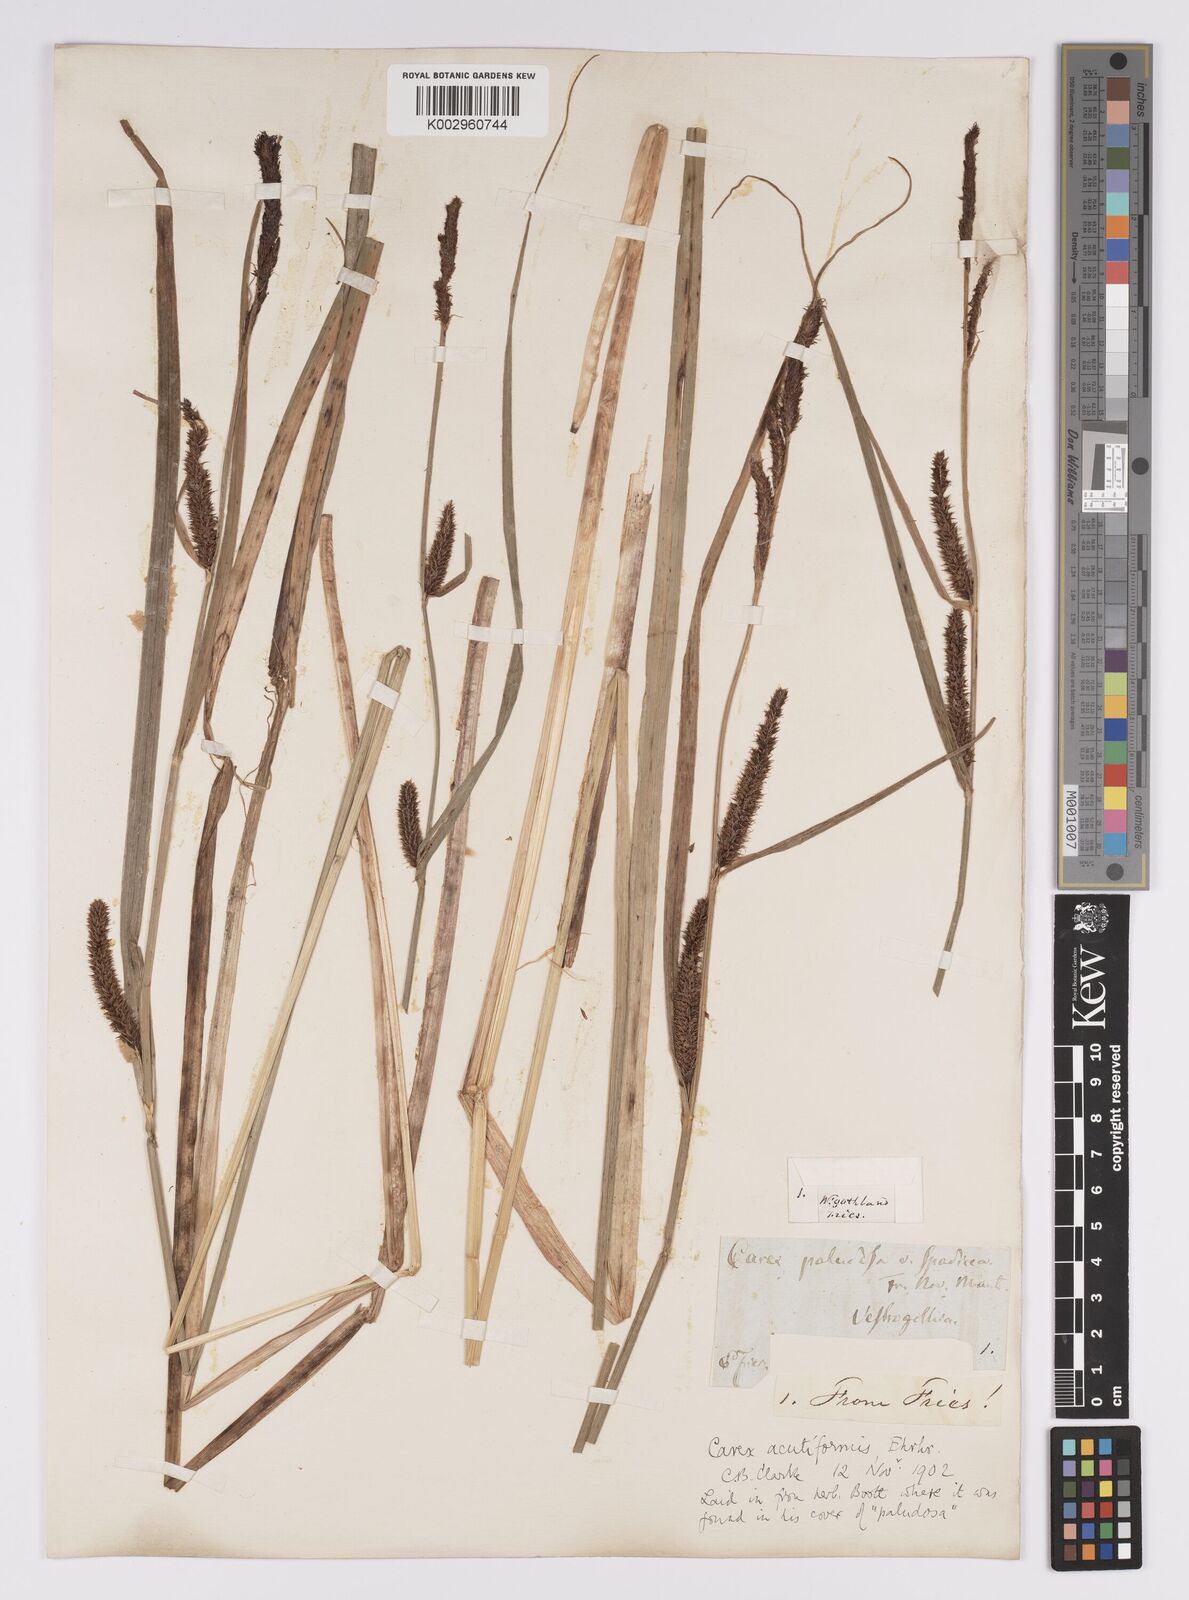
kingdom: Plantae
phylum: Tracheophyta
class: Liliopsida
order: Poales
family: Cyperaceae
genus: Carex
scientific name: Carex acutiformis
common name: Lesser pond-sedge
